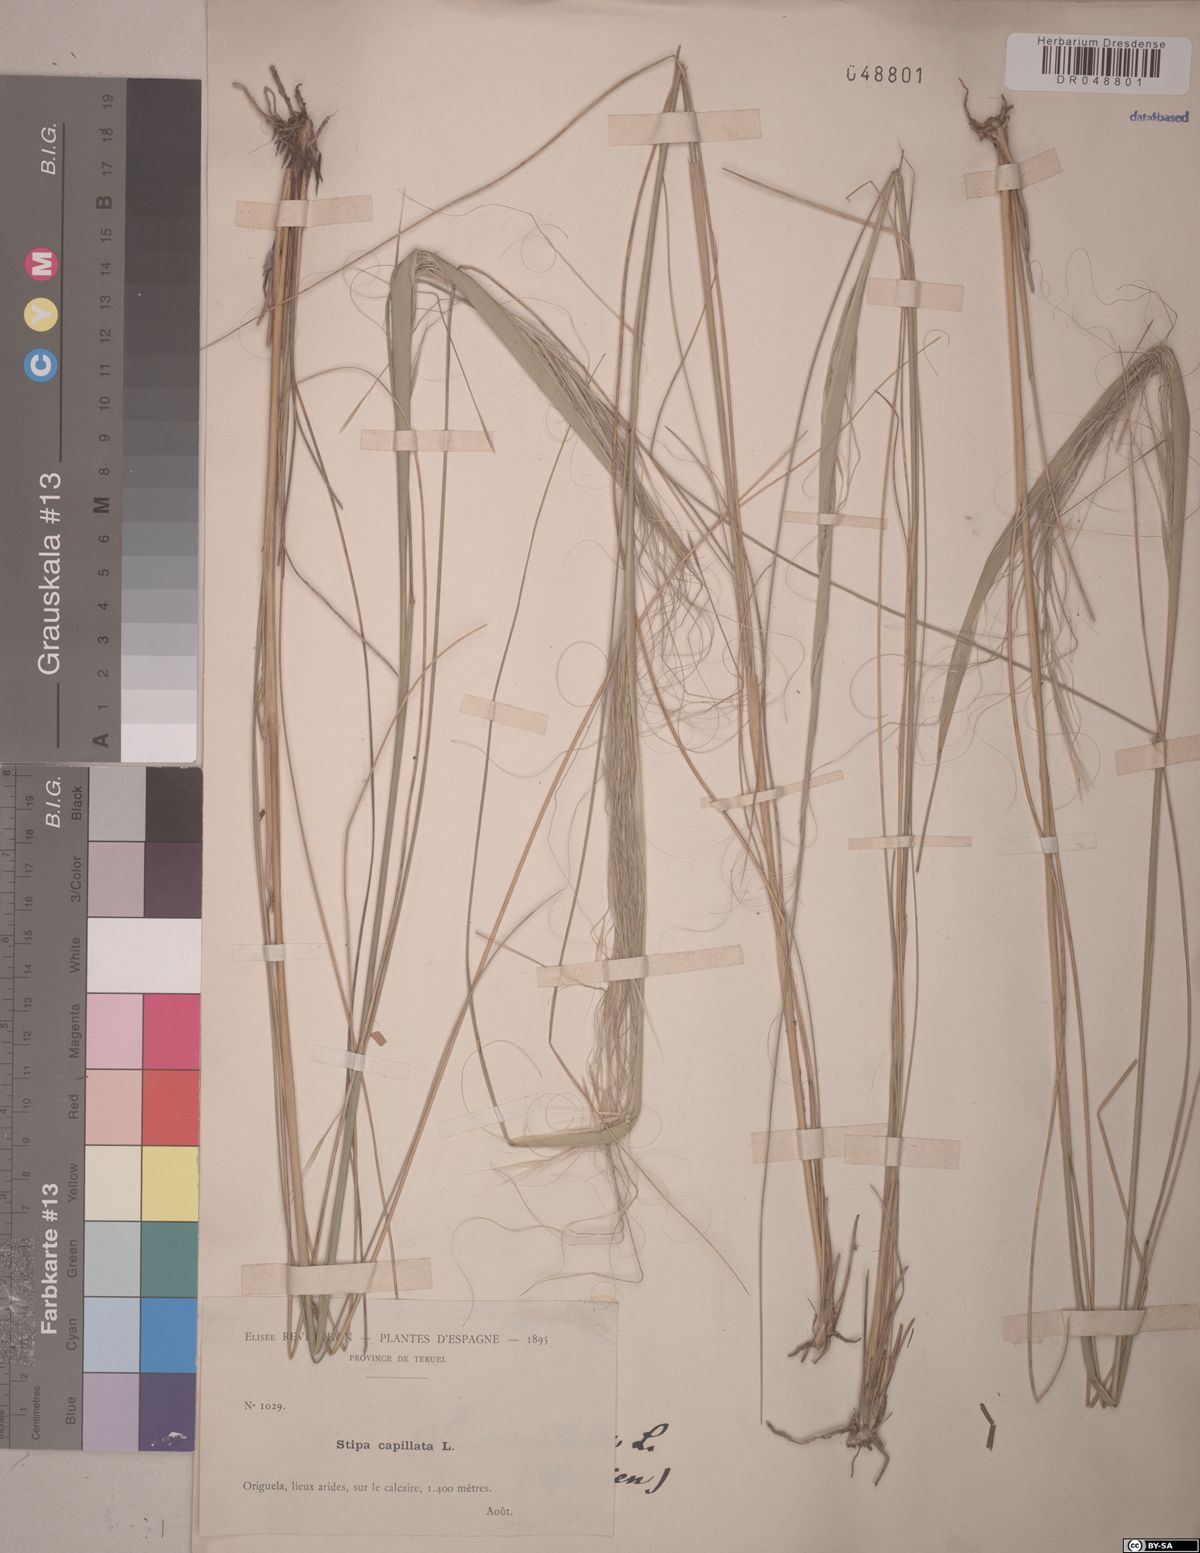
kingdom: Plantae
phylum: Tracheophyta
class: Liliopsida
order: Poales
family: Poaceae
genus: Stipa
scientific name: Stipa capillata
